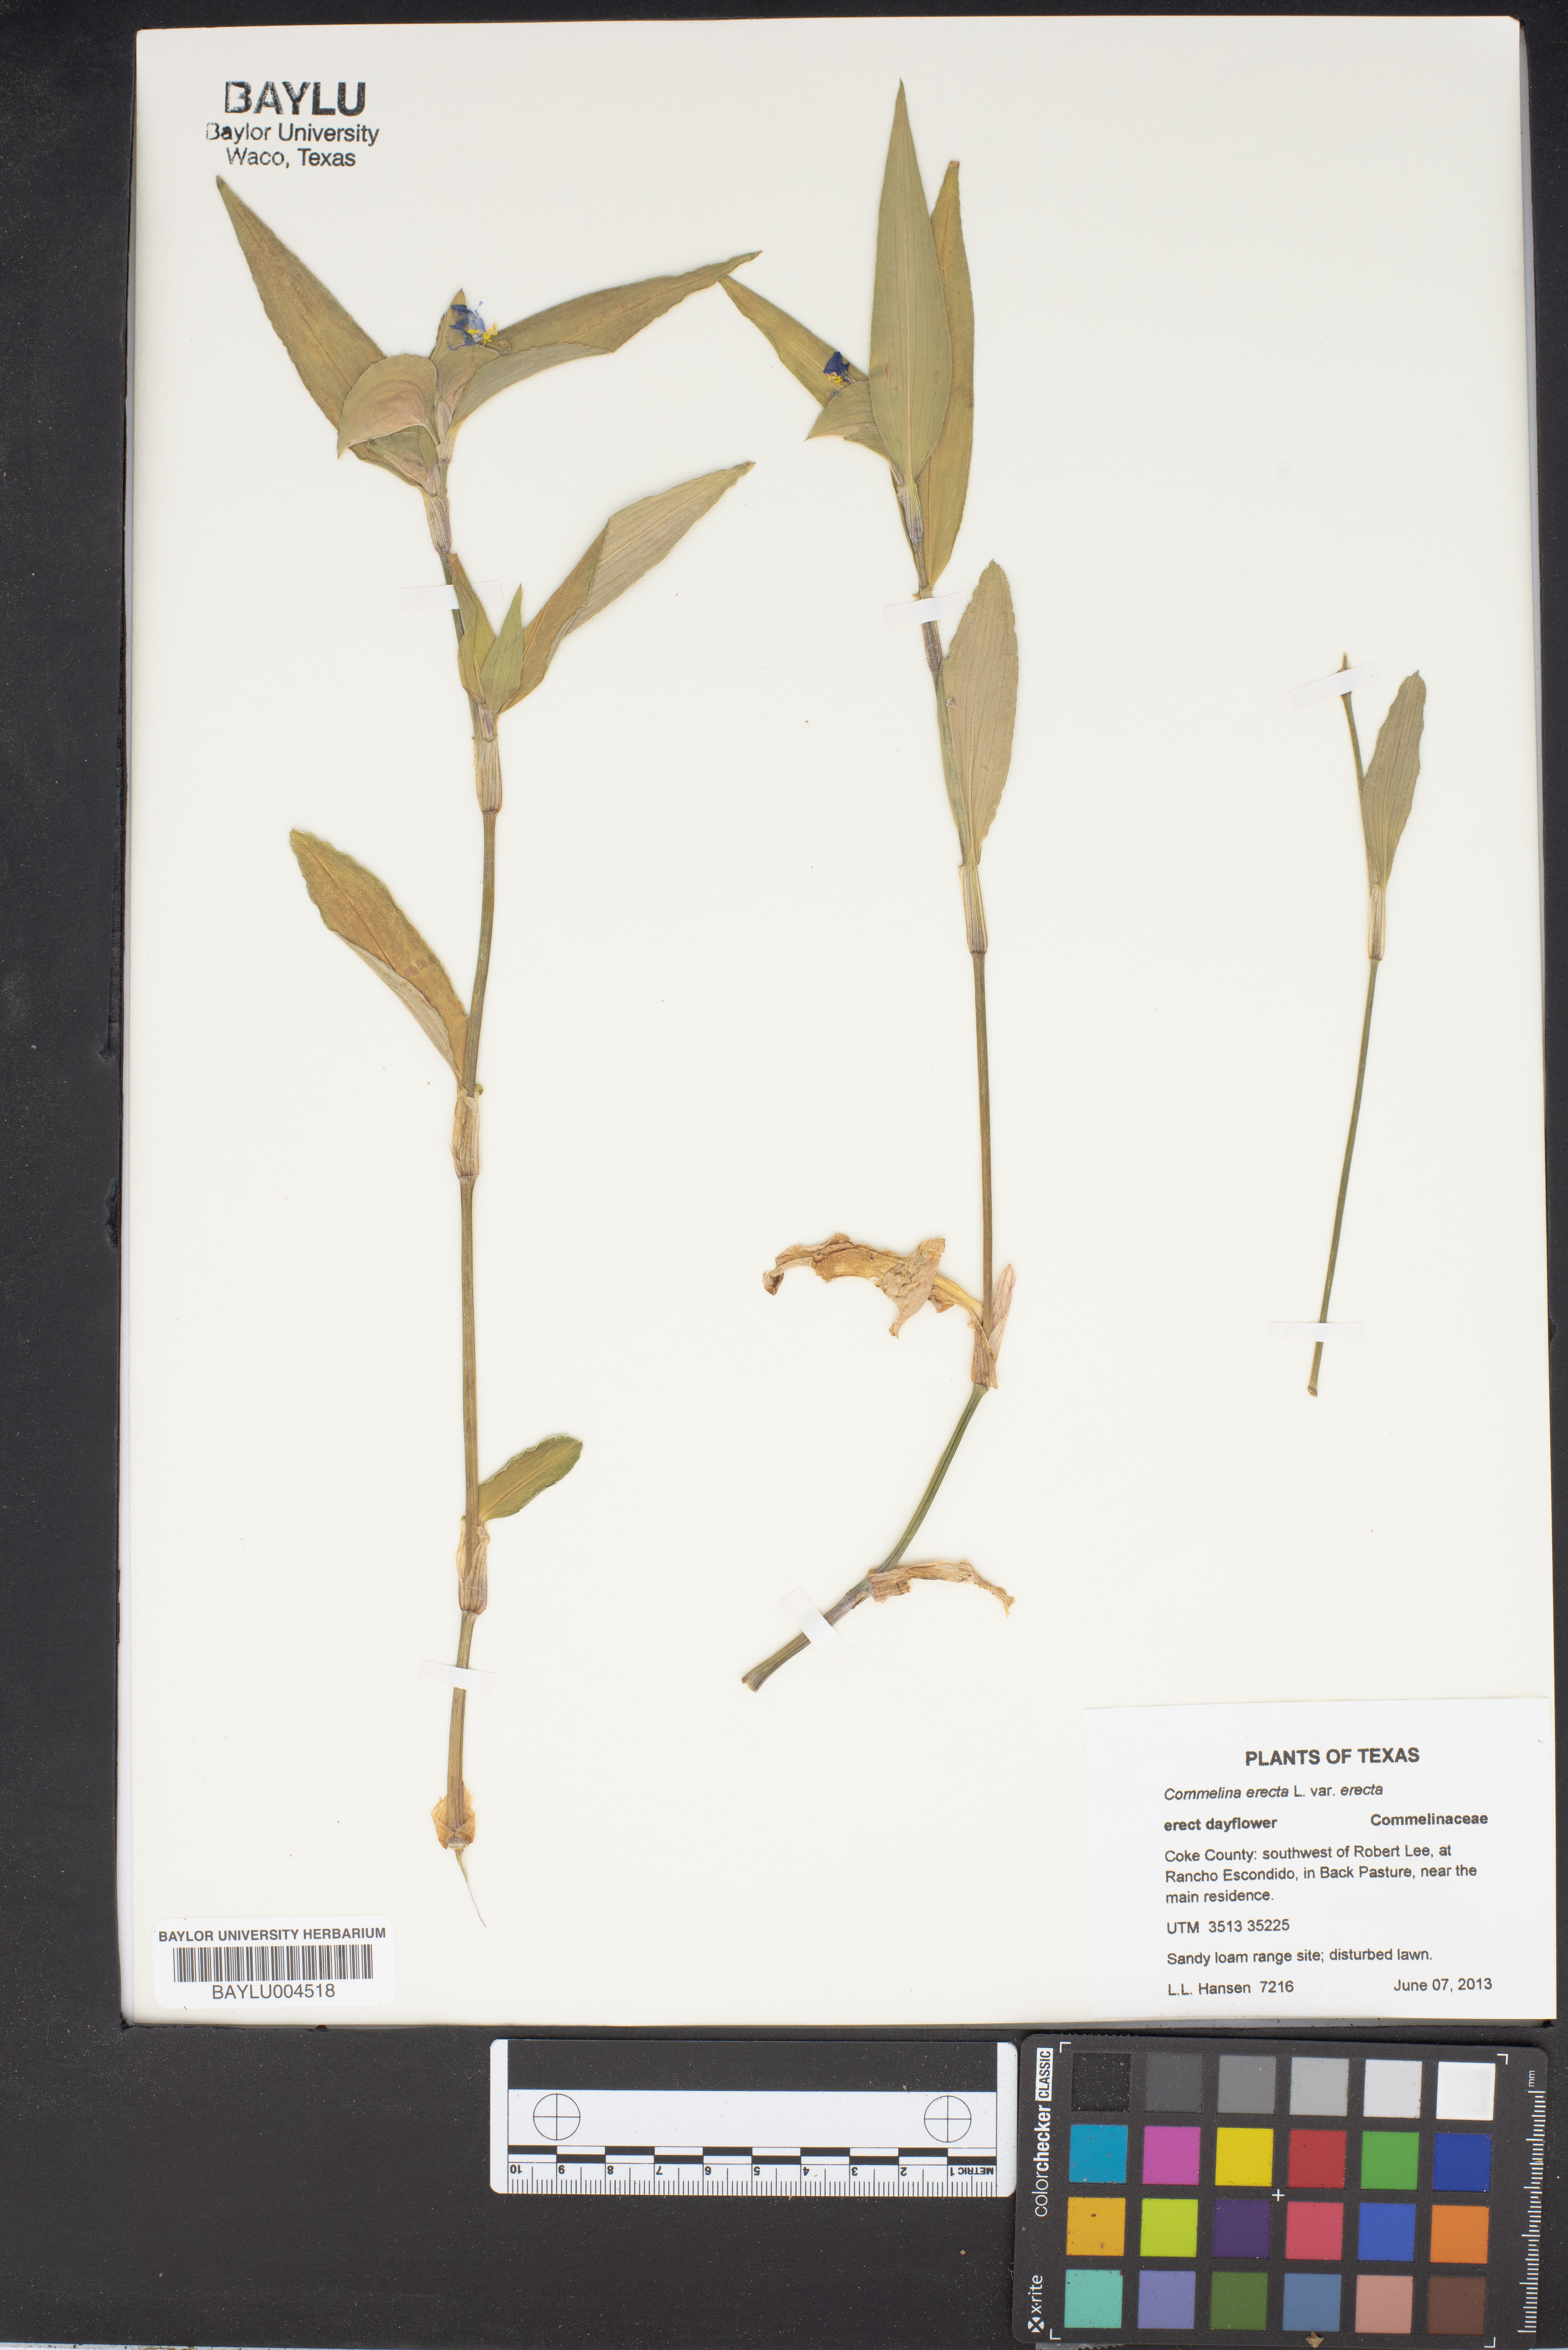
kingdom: Plantae
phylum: Tracheophyta
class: Liliopsida
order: Commelinales
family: Commelinaceae
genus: Commelina
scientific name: Commelina erecta
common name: Blousel blommetjie
